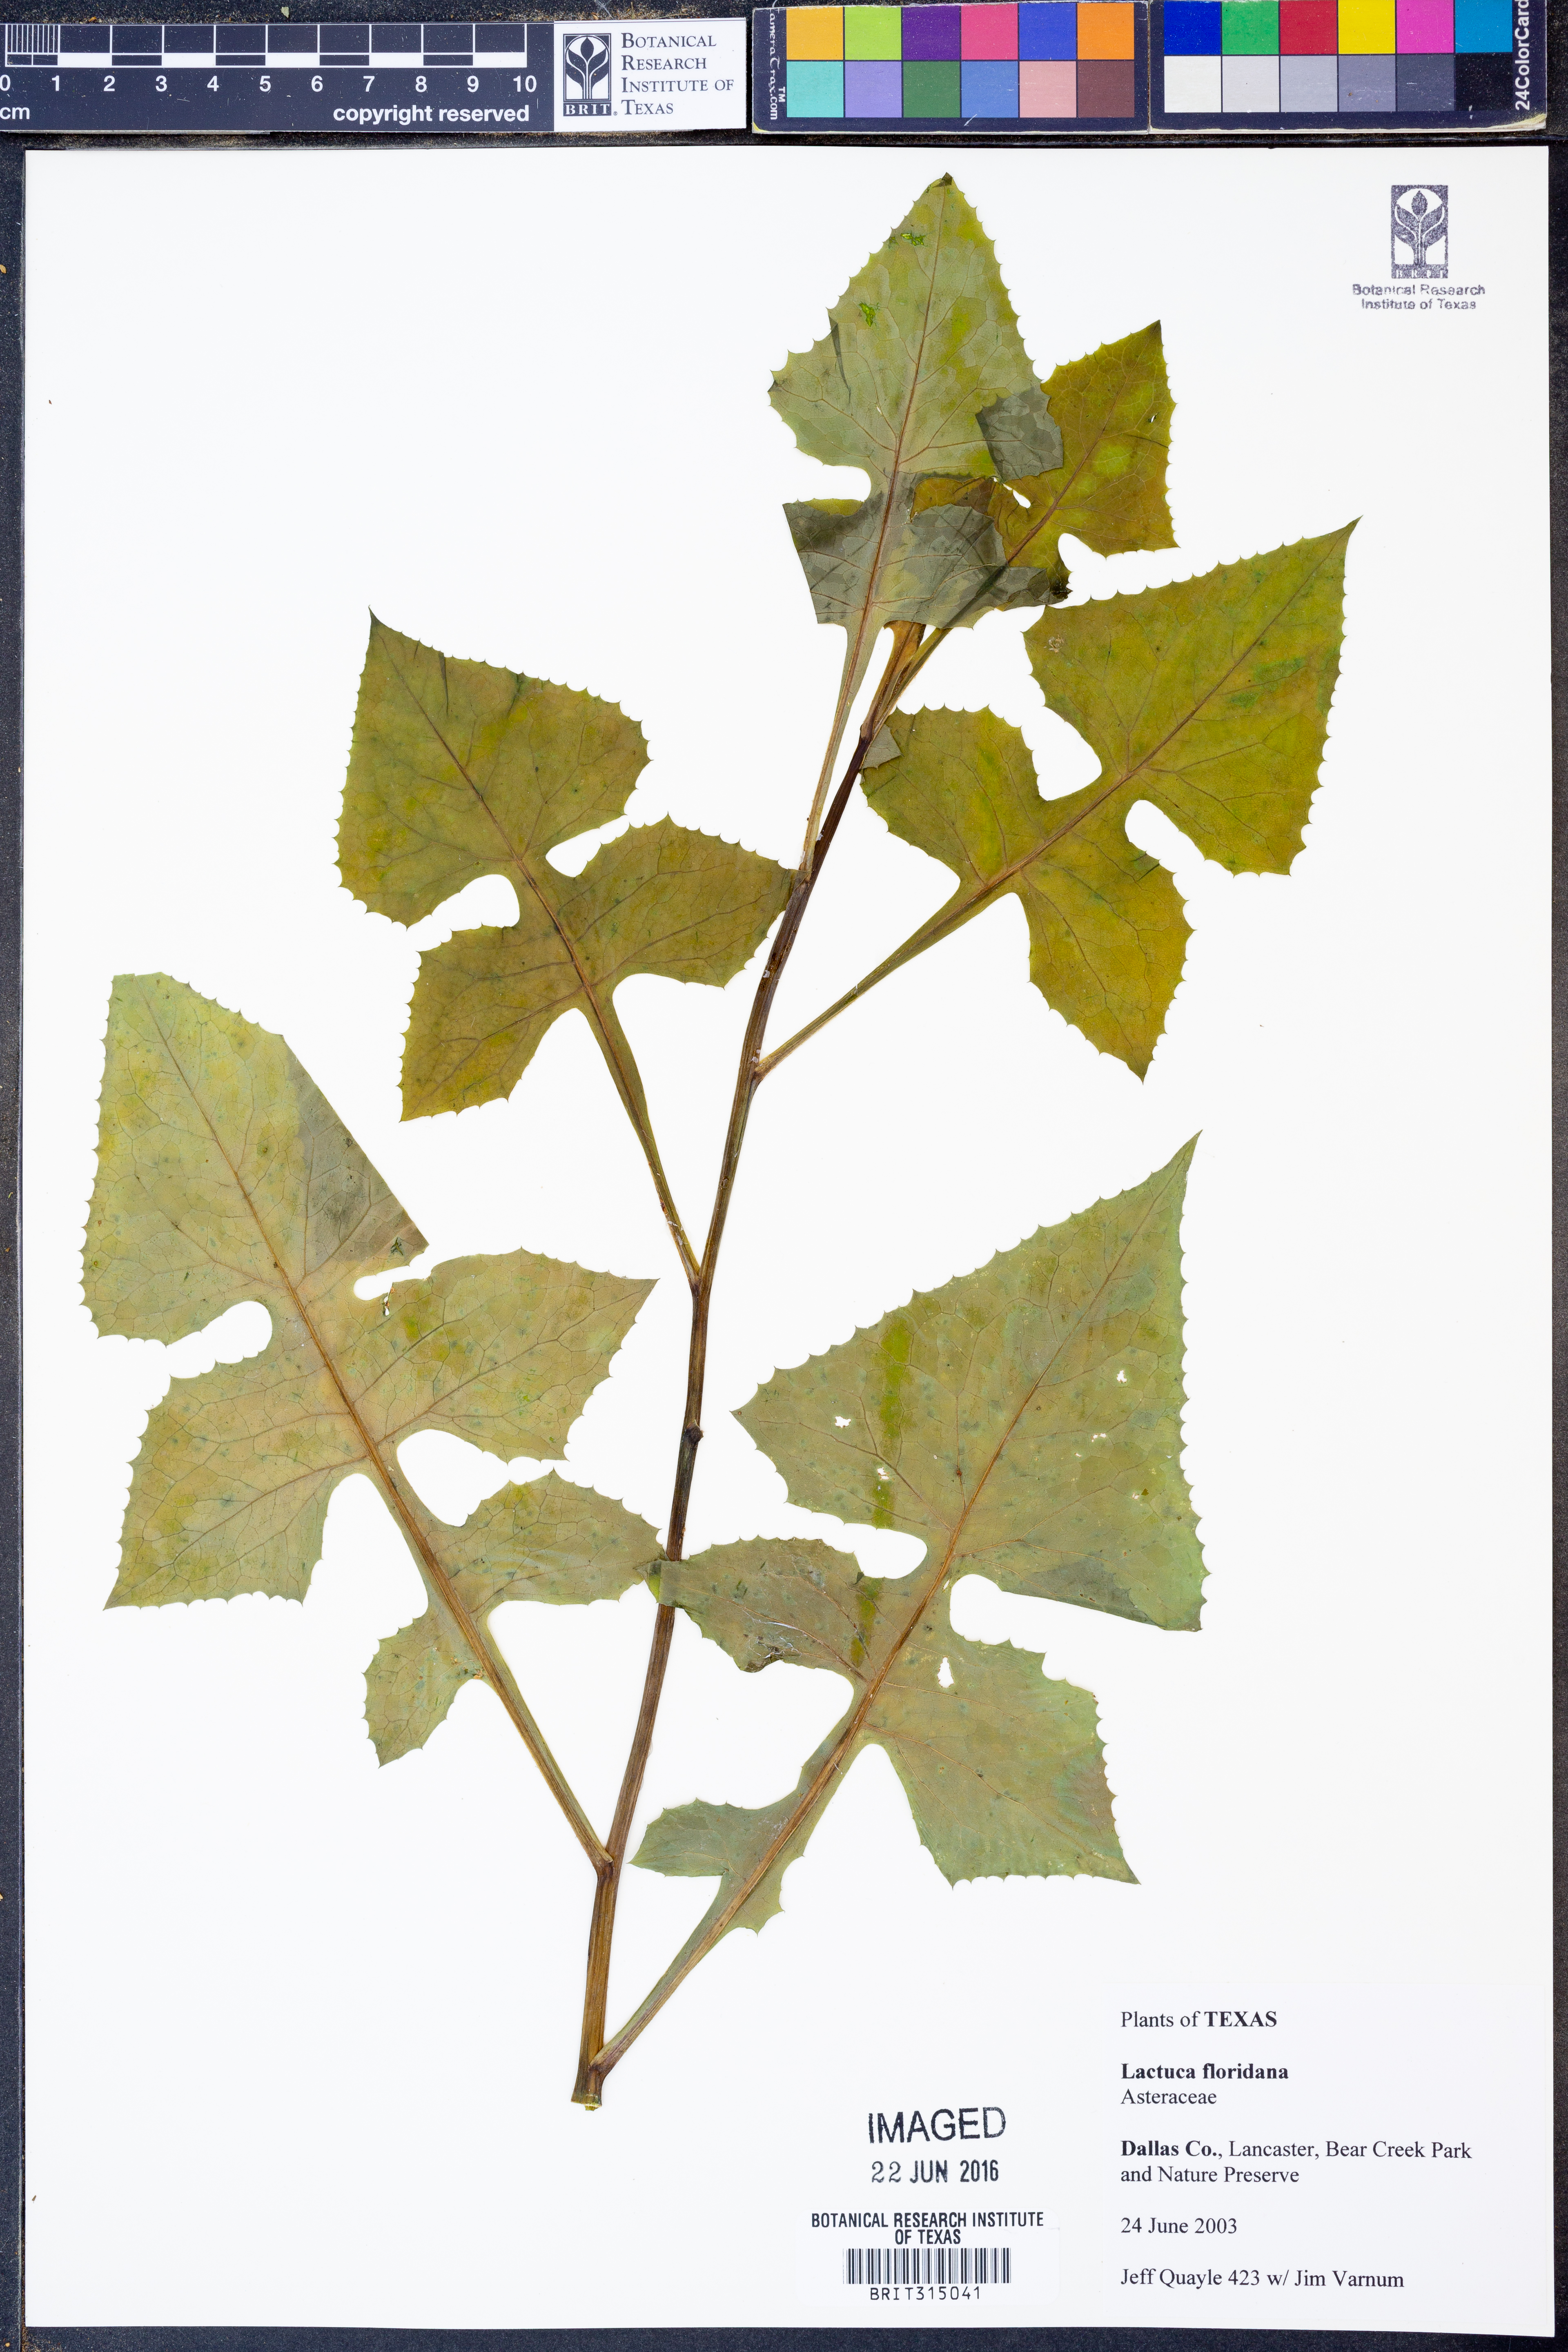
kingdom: Plantae
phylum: Tracheophyta
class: Magnoliopsida
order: Asterales
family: Asteraceae
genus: Lactuca
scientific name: Lactuca floridana
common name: Woodland lettuce
